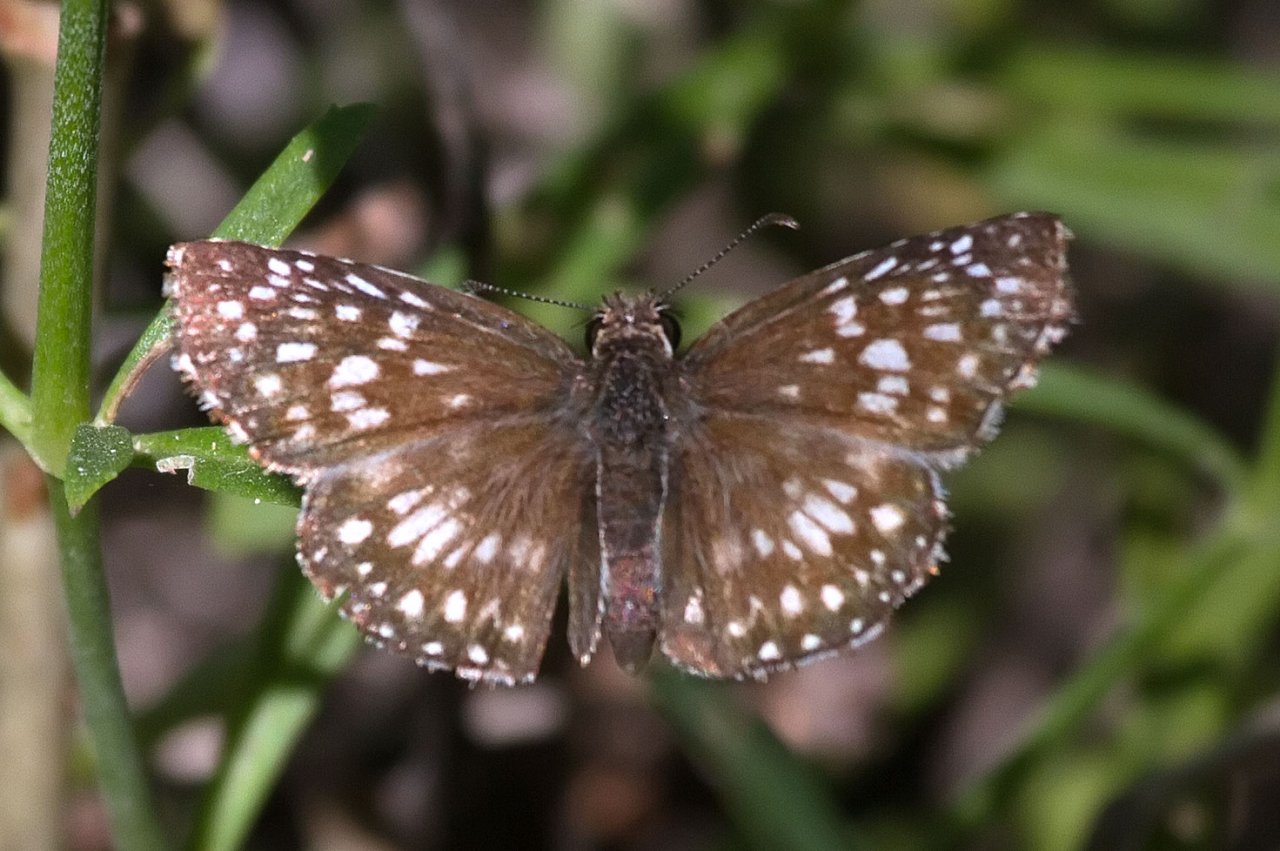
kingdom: Animalia
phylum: Arthropoda
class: Insecta
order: Lepidoptera
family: Hesperiidae
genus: Pyrgus
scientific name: Pyrgus oileus
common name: Tropical Checkered-Skipper
